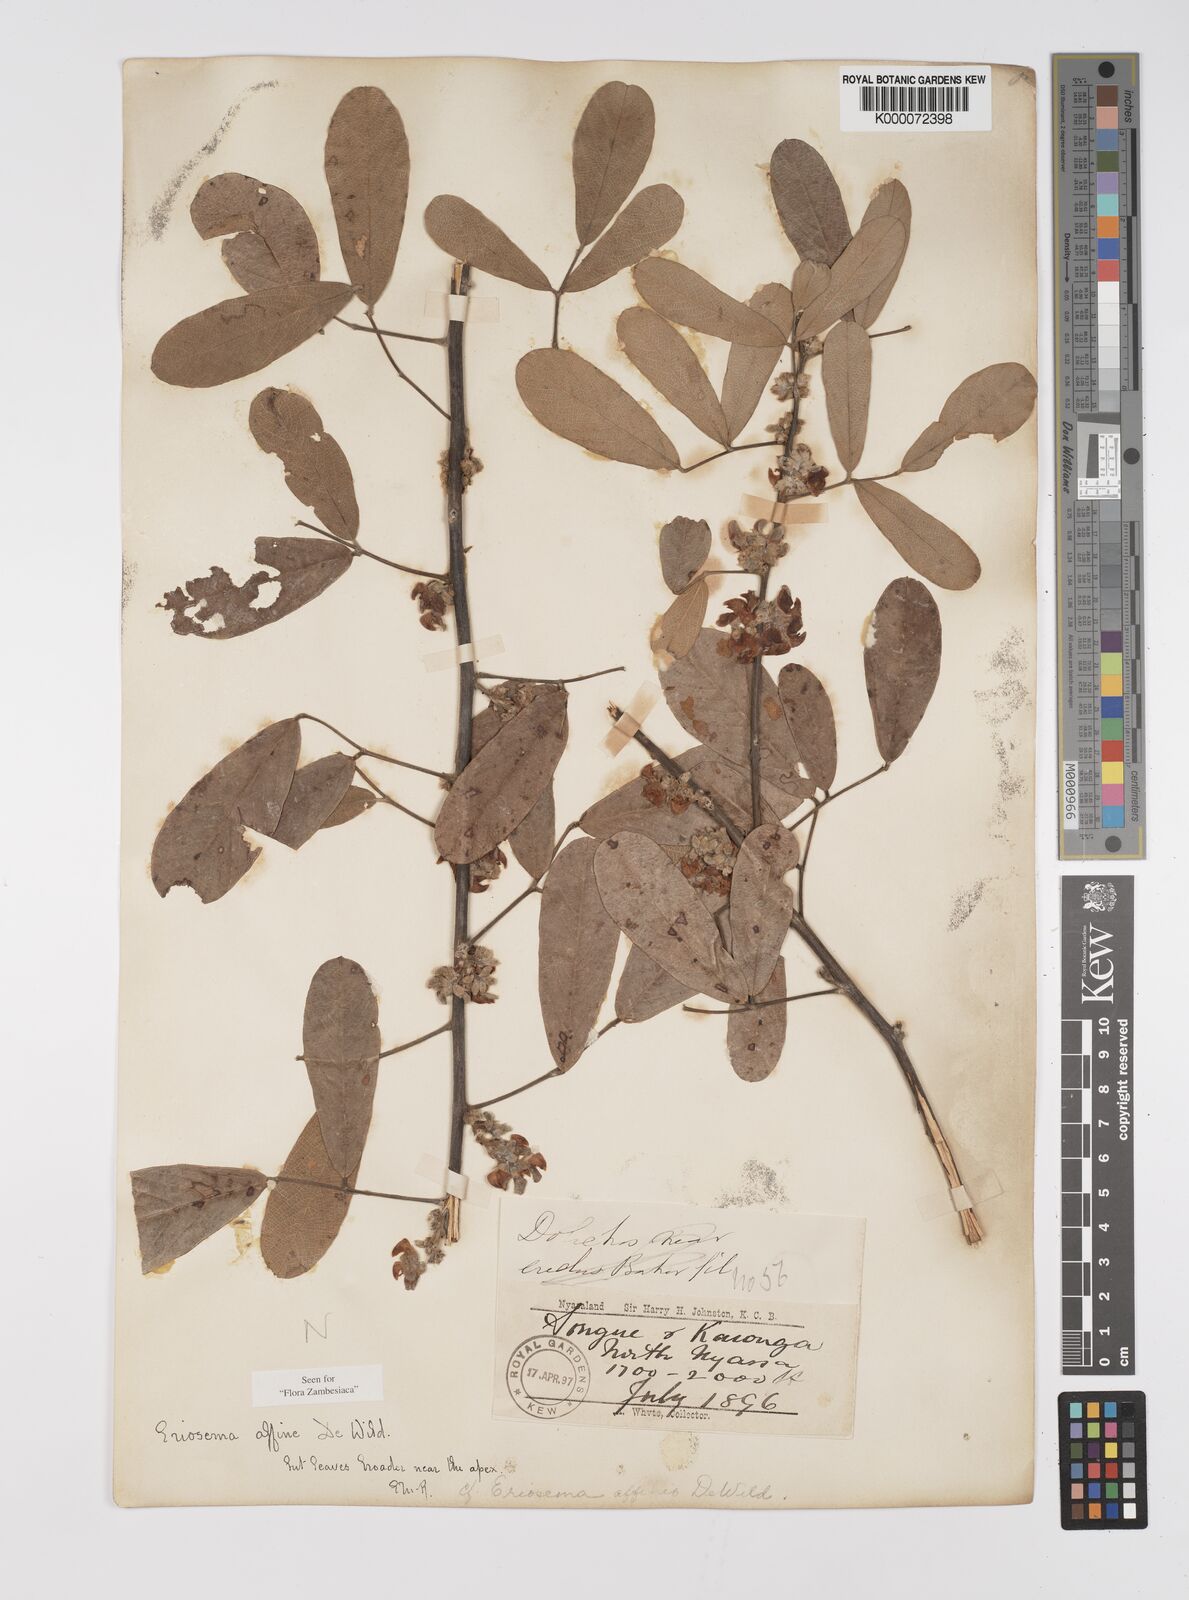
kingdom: Plantae
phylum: Tracheophyta
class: Magnoliopsida
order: Fabales
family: Fabaceae
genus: Eriosema
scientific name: Eriosema affine
